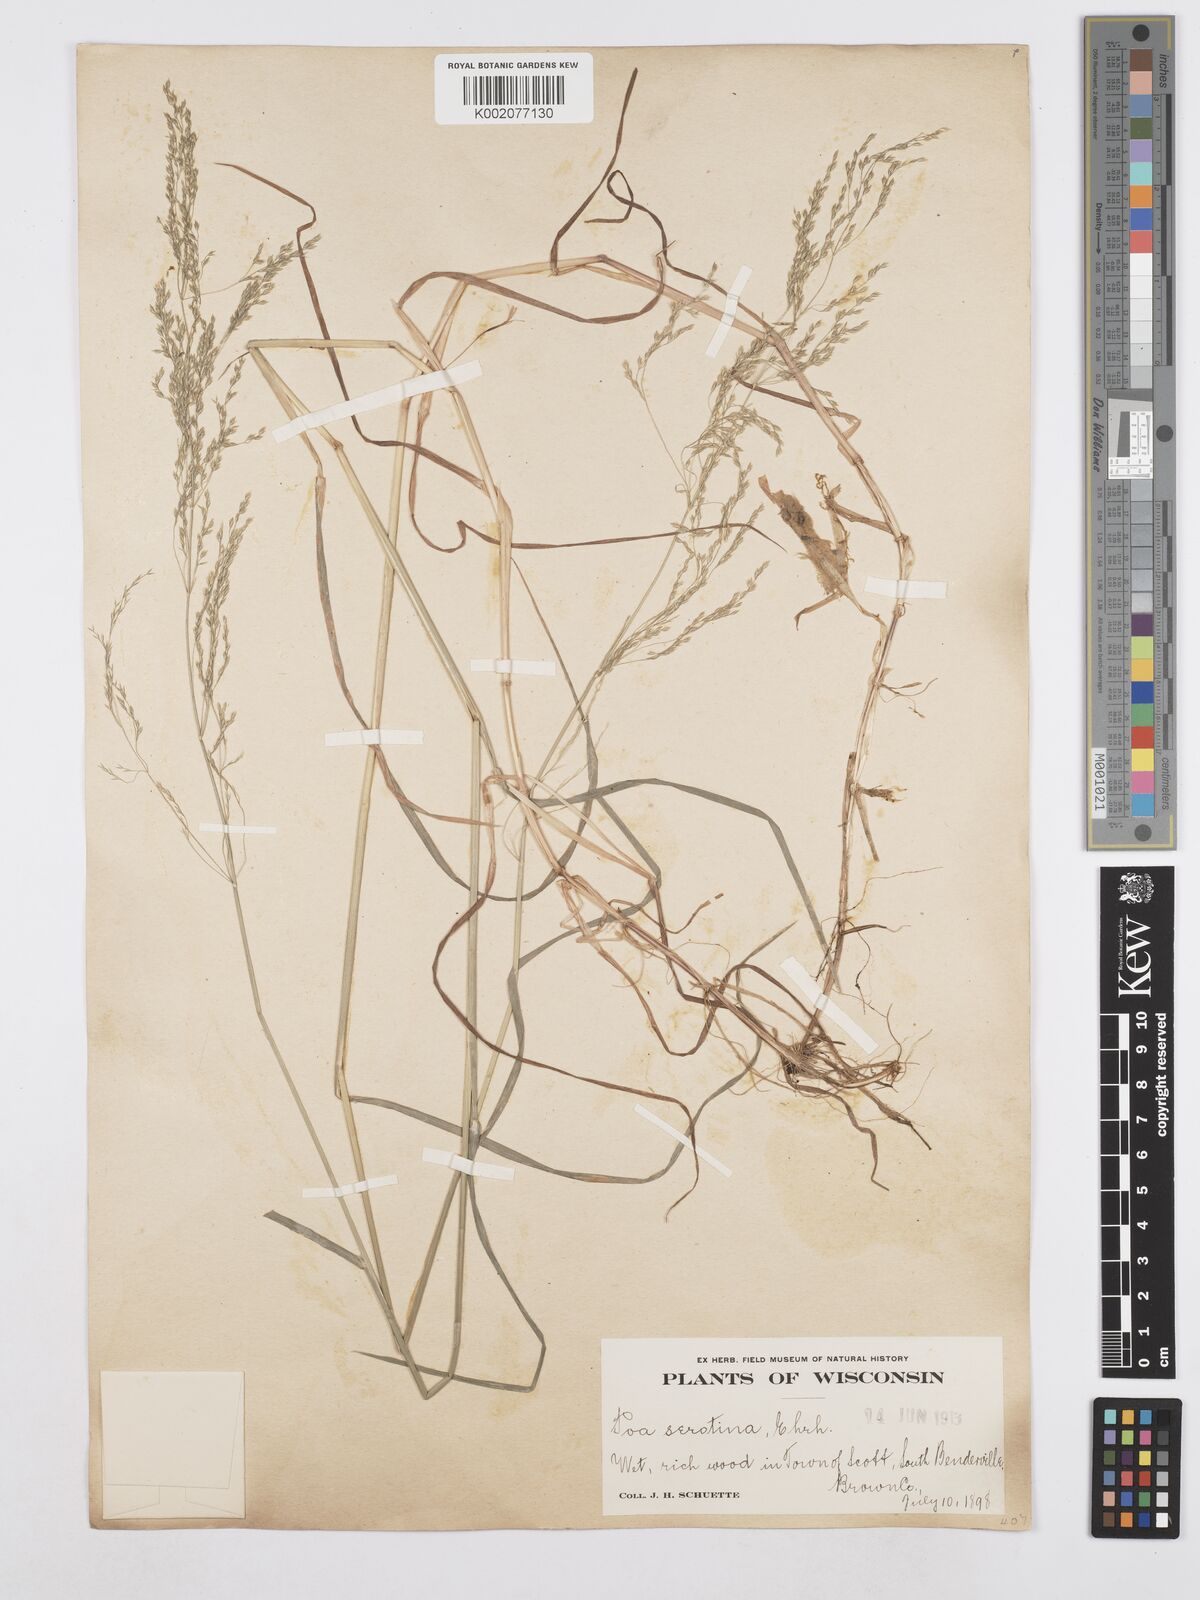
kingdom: Plantae
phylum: Tracheophyta
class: Liliopsida
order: Poales
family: Poaceae
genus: Poa
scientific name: Poa palustris
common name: Swamp meadow-grass
